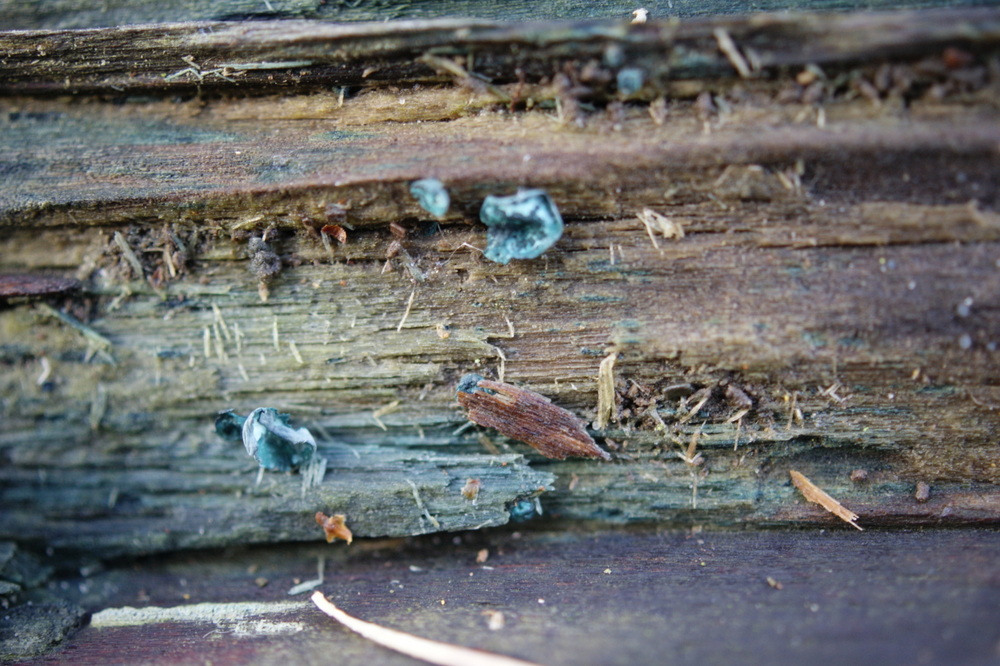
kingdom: Fungi
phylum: Ascomycota
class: Leotiomycetes
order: Helotiales
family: Chlorociboriaceae
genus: Chlorociboria
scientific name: Chlorociboria aeruginascens
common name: almindelig grønskive
